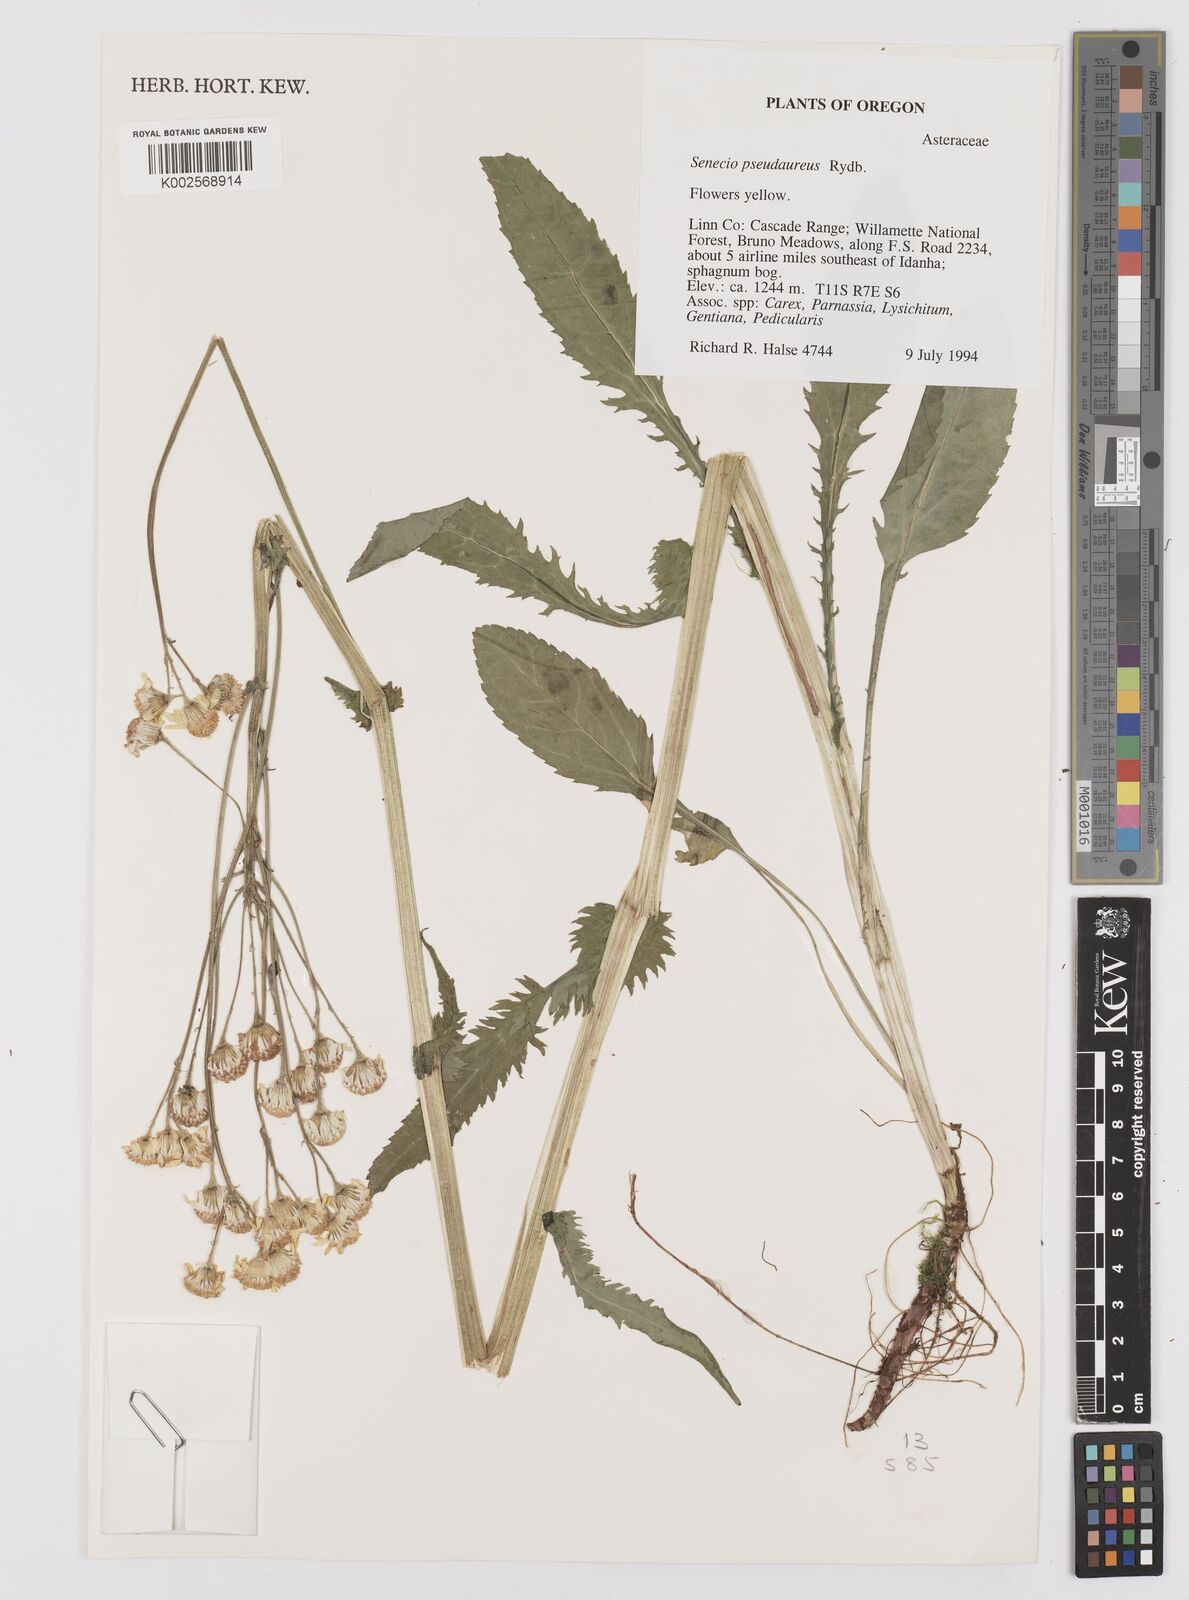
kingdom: Plantae
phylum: Tracheophyta
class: Magnoliopsida
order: Asterales
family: Asteraceae
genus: Packera
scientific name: Packera pseudaurea
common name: False-gold groundsel
